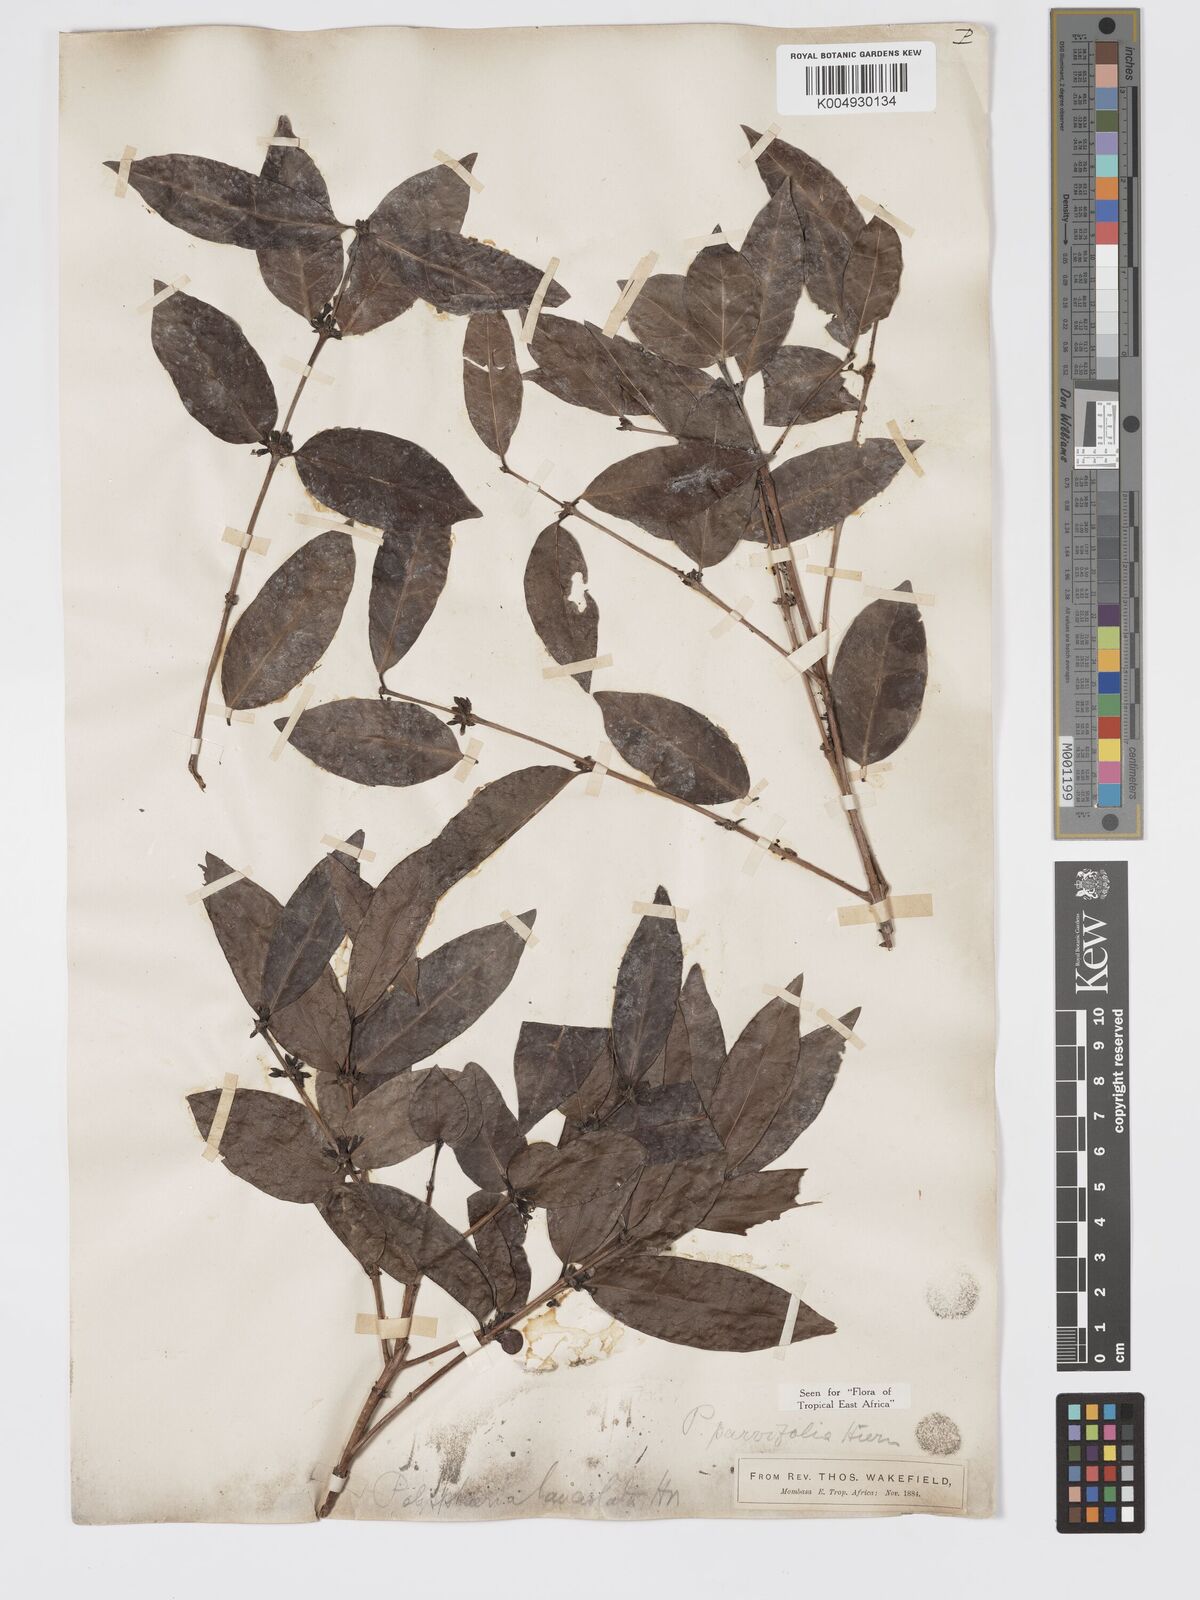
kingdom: Plantae
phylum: Tracheophyta
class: Magnoliopsida
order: Gentianales
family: Rubiaceae
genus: Polysphaeria
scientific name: Polysphaeria parvifolia
